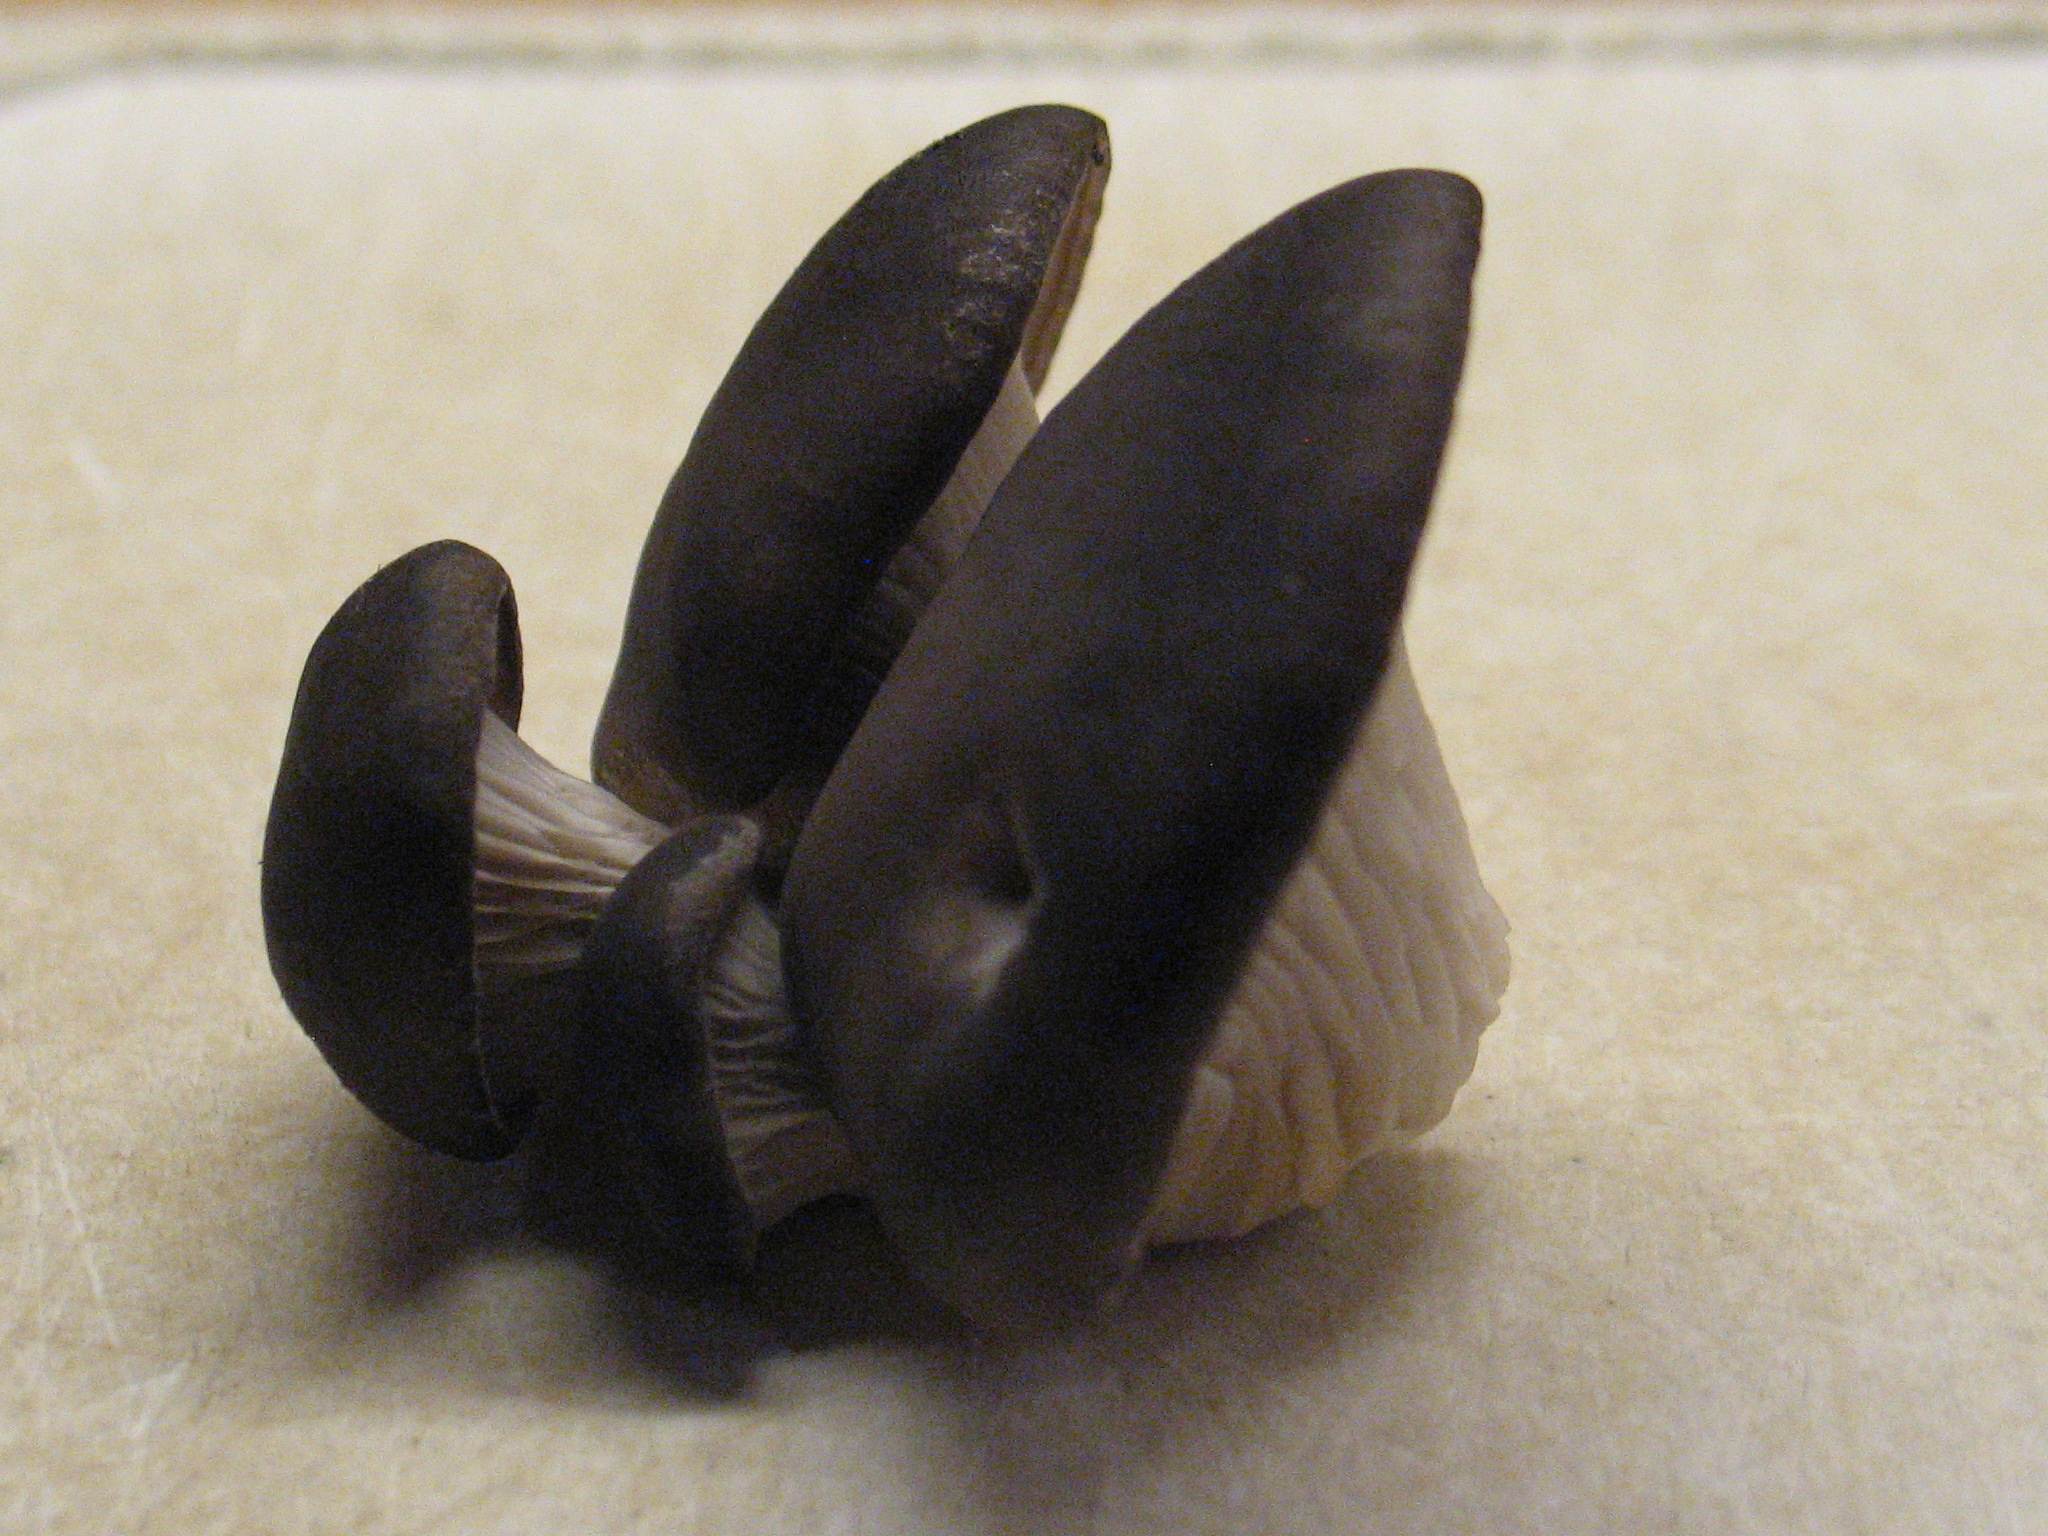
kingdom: Fungi
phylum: Basidiomycota
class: Agaricomycetes
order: Agaricales
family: Pleurotaceae
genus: Pleurotus
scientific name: Pleurotus ostreatus
